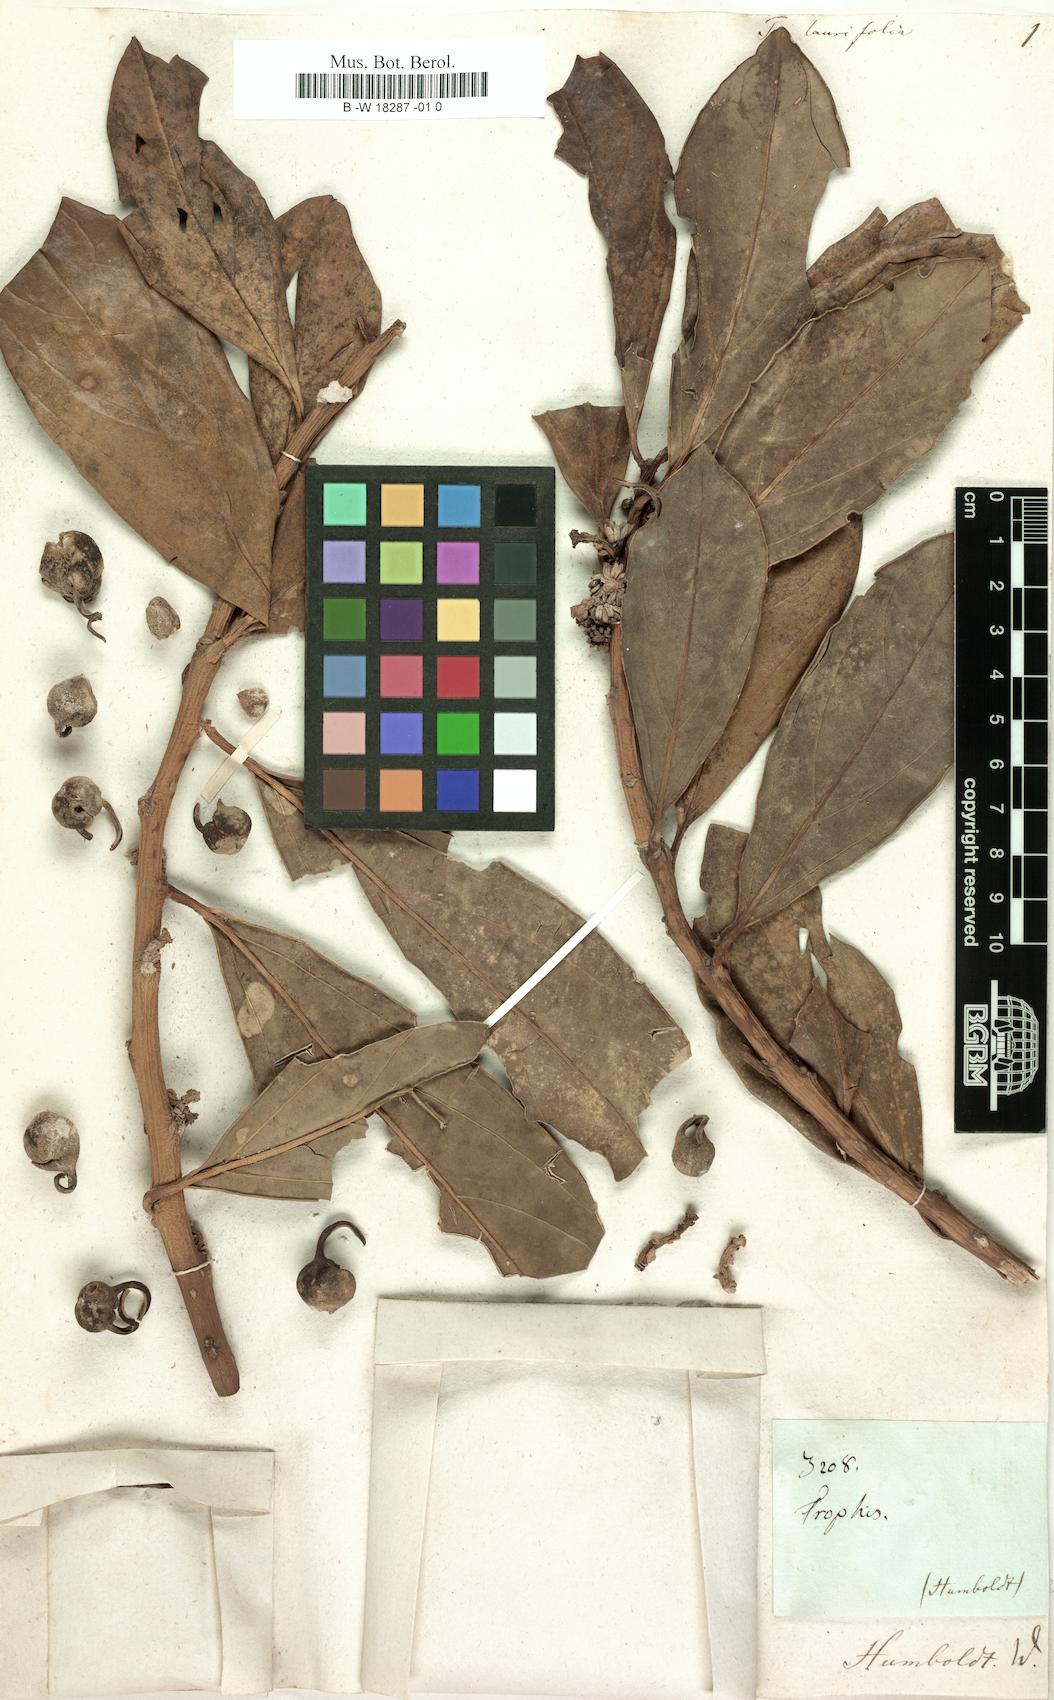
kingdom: Plantae
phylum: Tracheophyta
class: Magnoliopsida
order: Buxales
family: Buxaceae
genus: Styloceras
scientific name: Styloceras laurifolium
